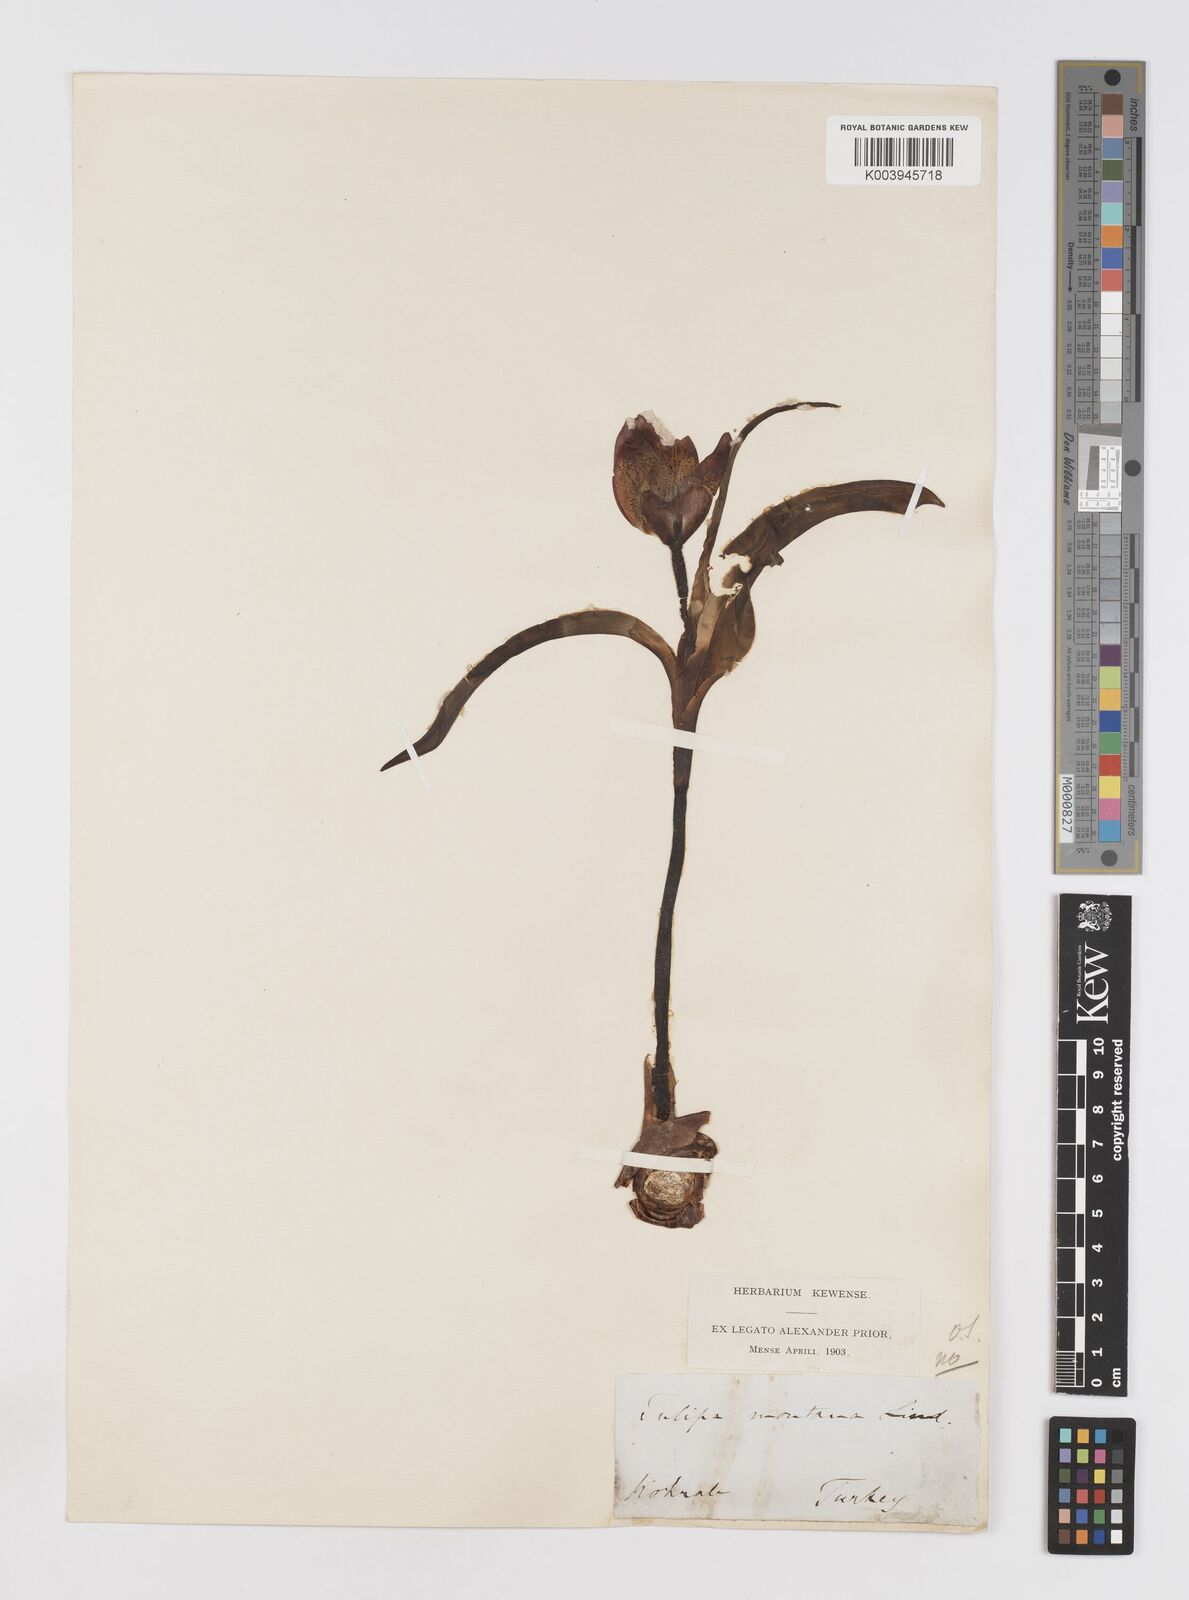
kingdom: Plantae
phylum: Tracheophyta
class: Liliopsida
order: Liliales
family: Liliaceae
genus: Tulipa
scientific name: Tulipa armena
